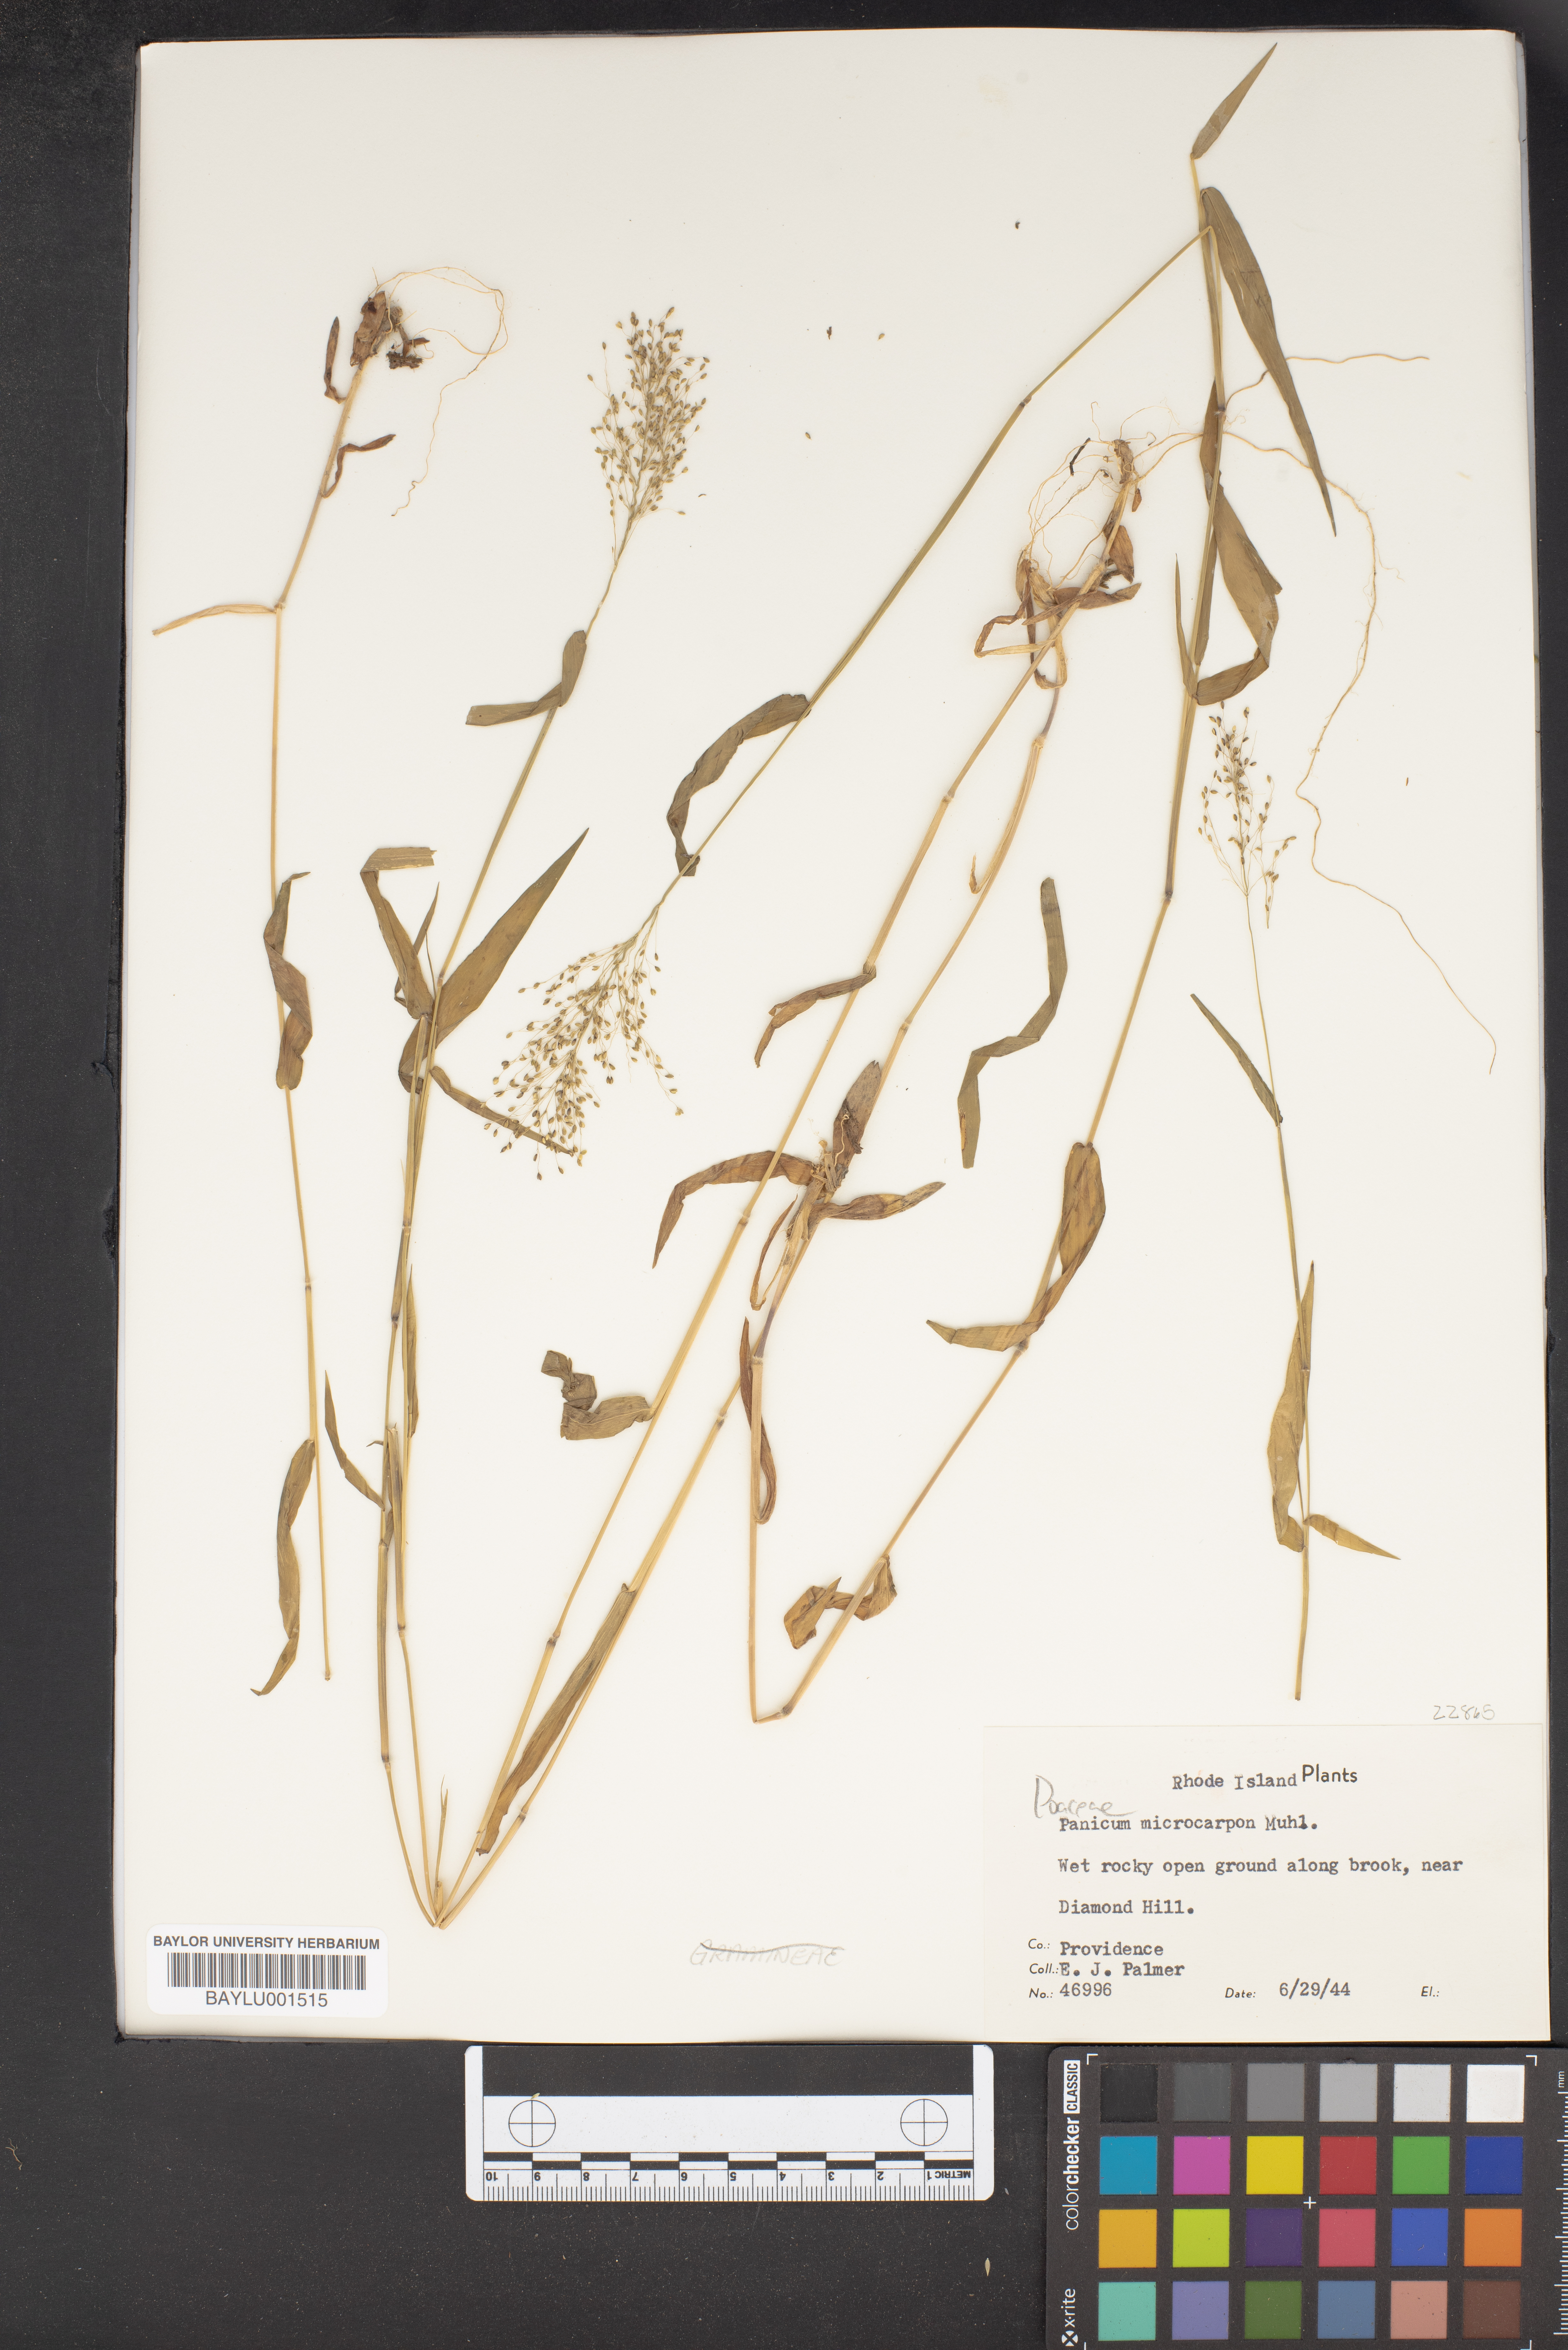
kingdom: Plantae
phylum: Tracheophyta
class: Liliopsida
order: Poales
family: Poaceae
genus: Dichanthelium
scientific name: Dichanthelium polyanthes
